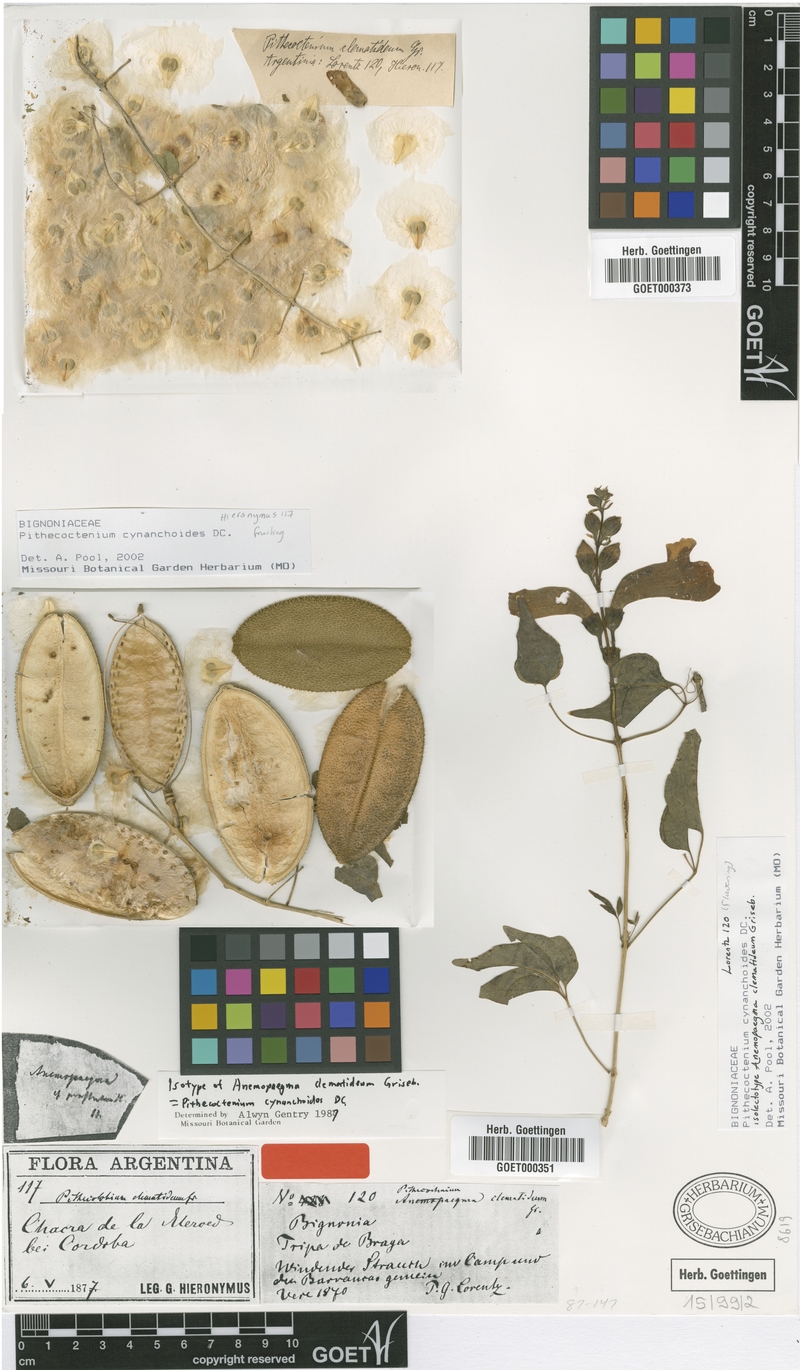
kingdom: Plantae
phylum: Tracheophyta
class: Magnoliopsida
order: Lamiales
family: Bignoniaceae
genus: Amphilophium
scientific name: Amphilophium carolinae
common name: Monkey's-comb
